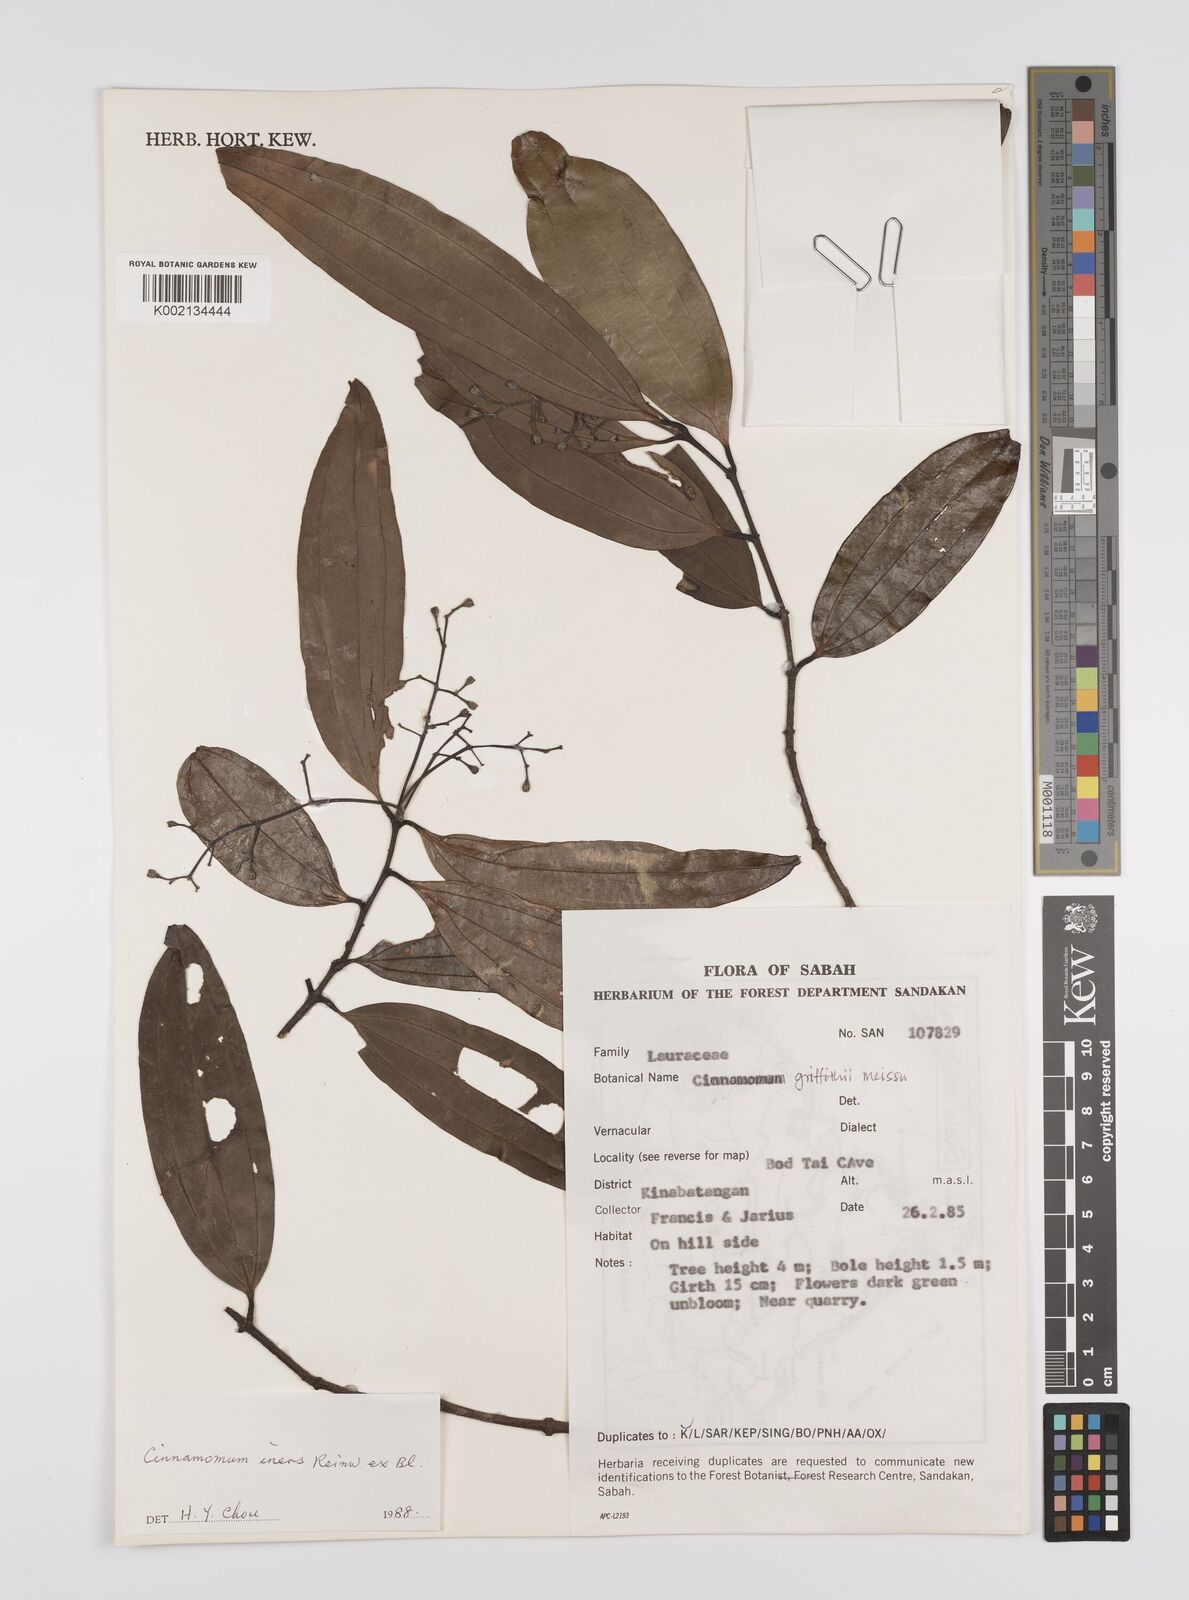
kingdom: Plantae
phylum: Tracheophyta
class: Magnoliopsida
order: Laurales
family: Lauraceae
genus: Cinnamomum
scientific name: Cinnamomum iners
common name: Wild cinnamon
